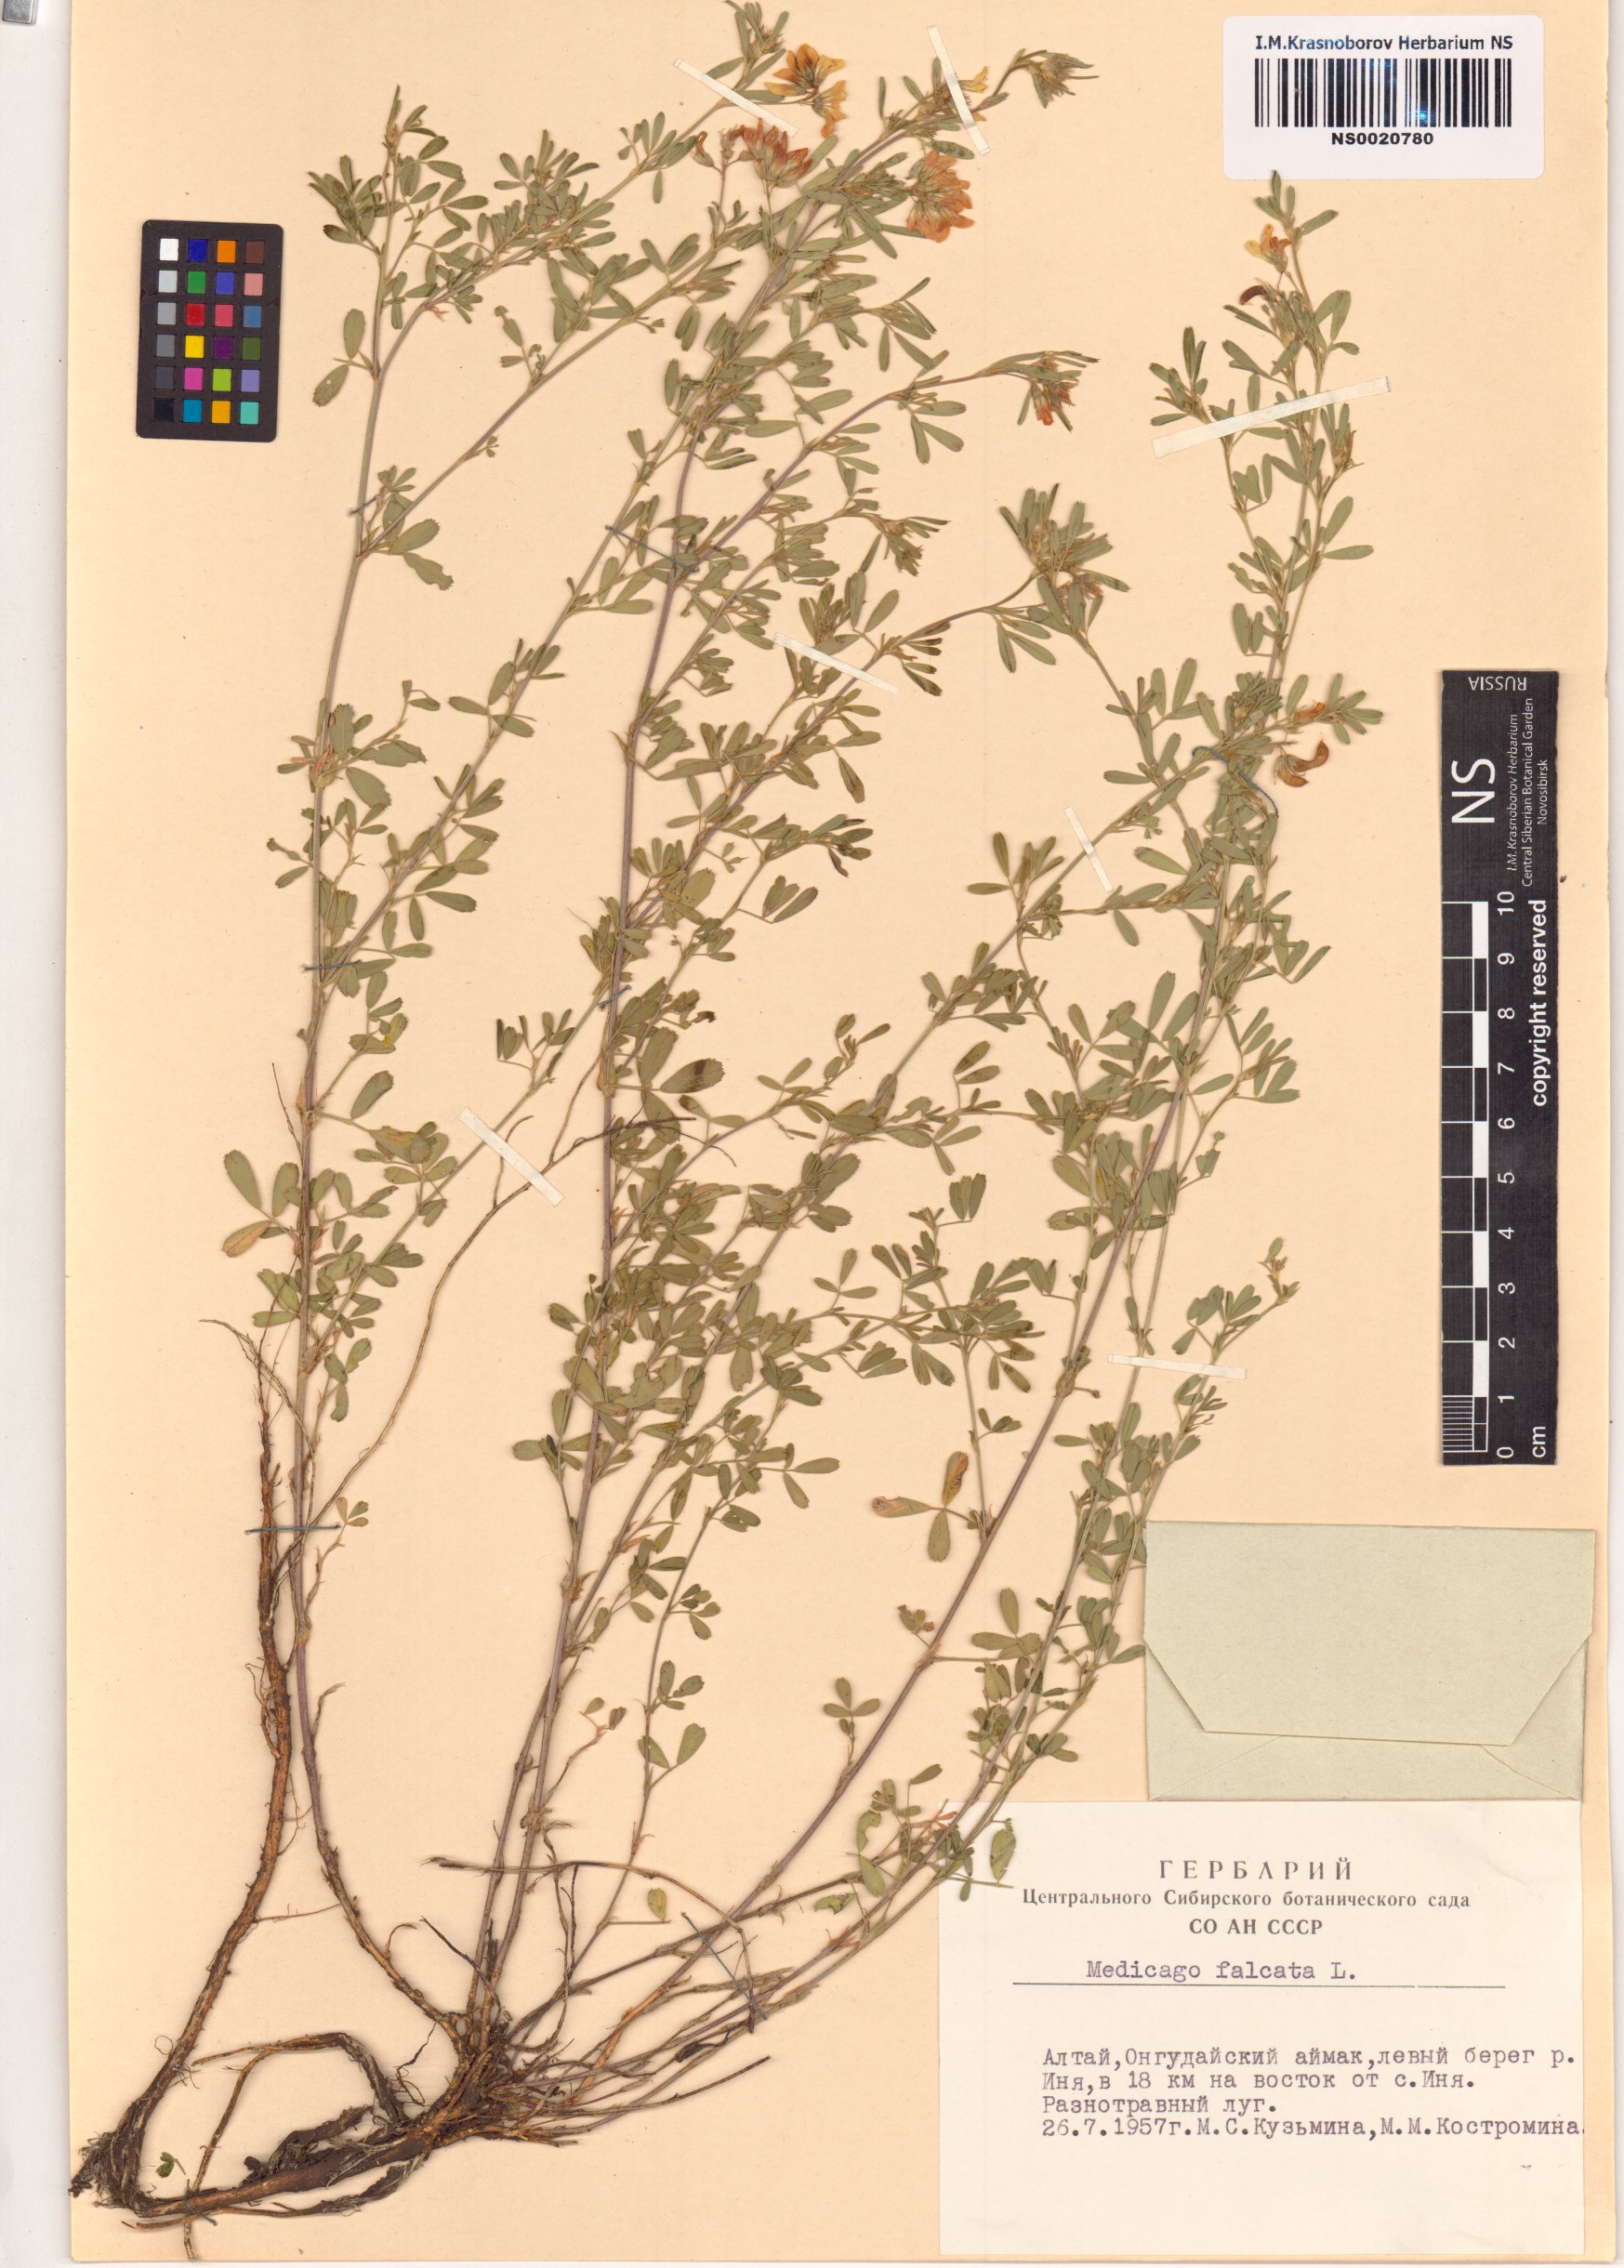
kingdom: Plantae
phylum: Tracheophyta
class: Magnoliopsida
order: Fabales
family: Fabaceae
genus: Medicago
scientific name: Medicago falcata
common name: Sickle medick
